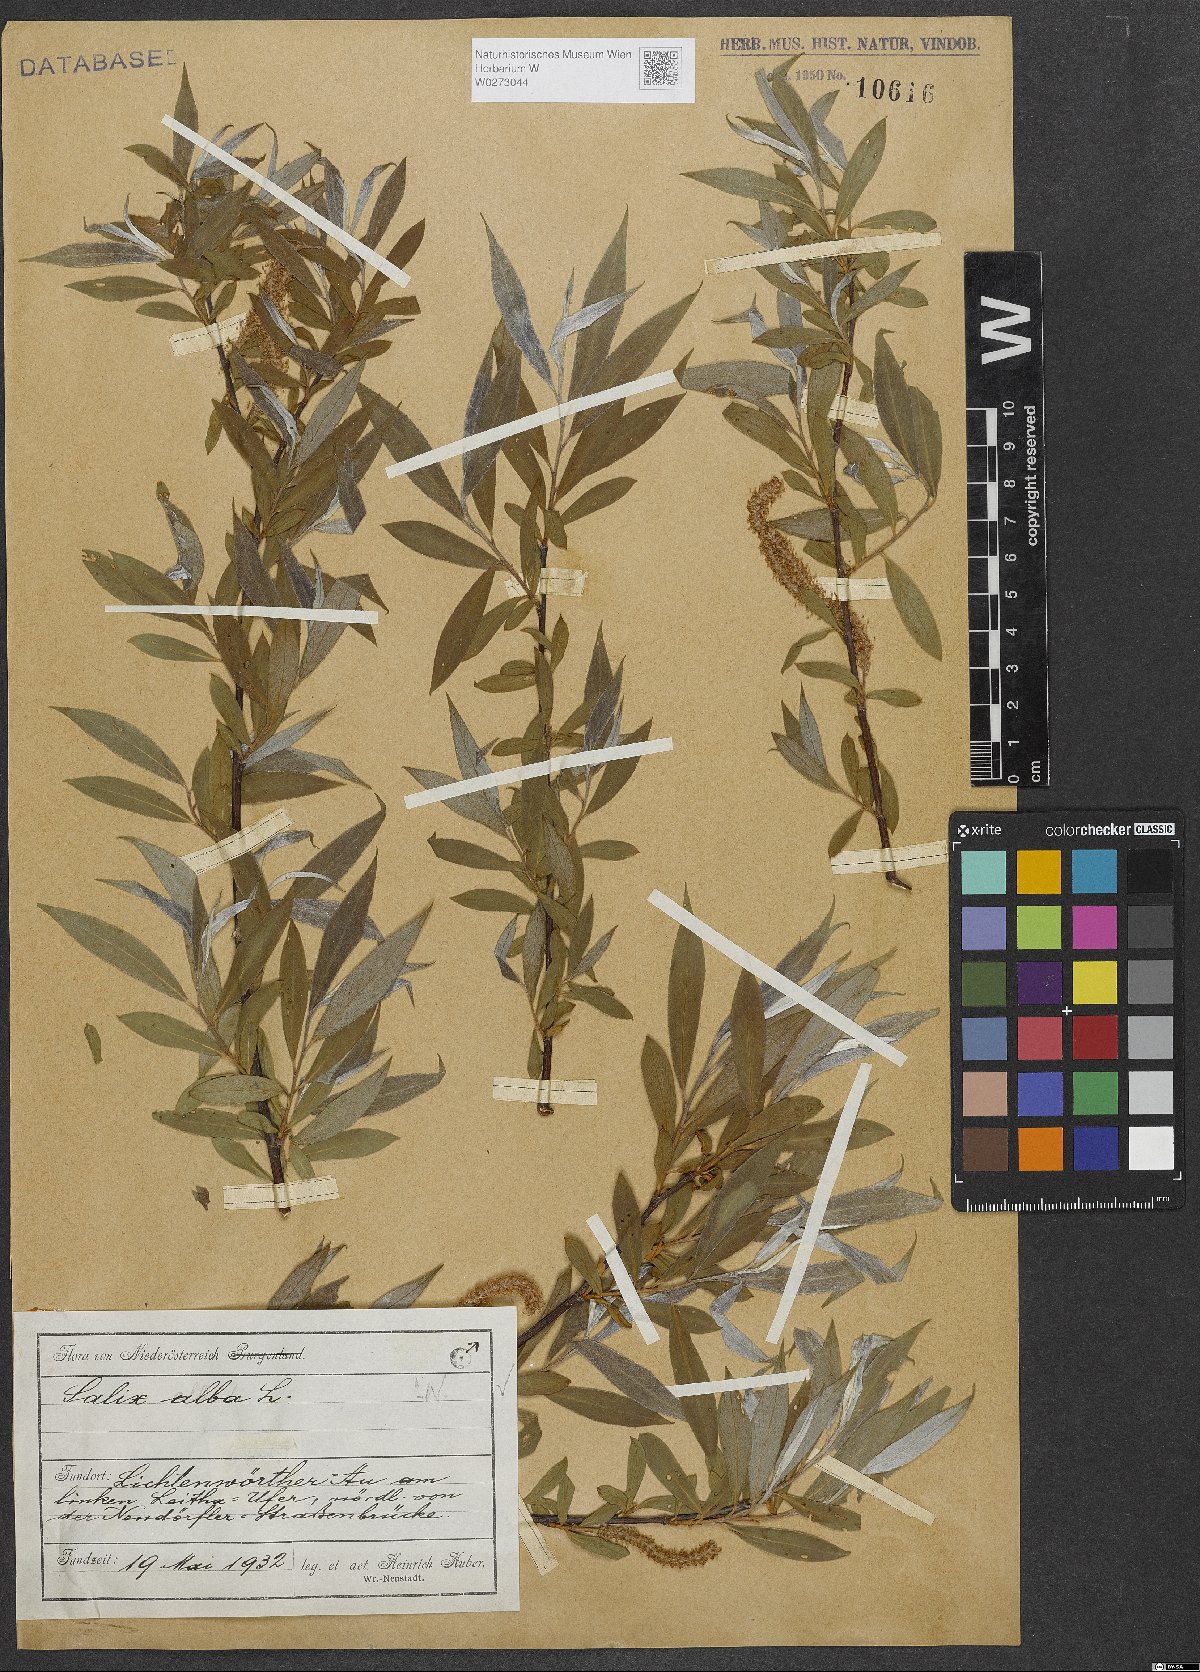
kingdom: Plantae
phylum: Tracheophyta
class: Magnoliopsida
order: Malpighiales
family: Salicaceae
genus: Salix
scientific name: Salix alba
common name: White willow
